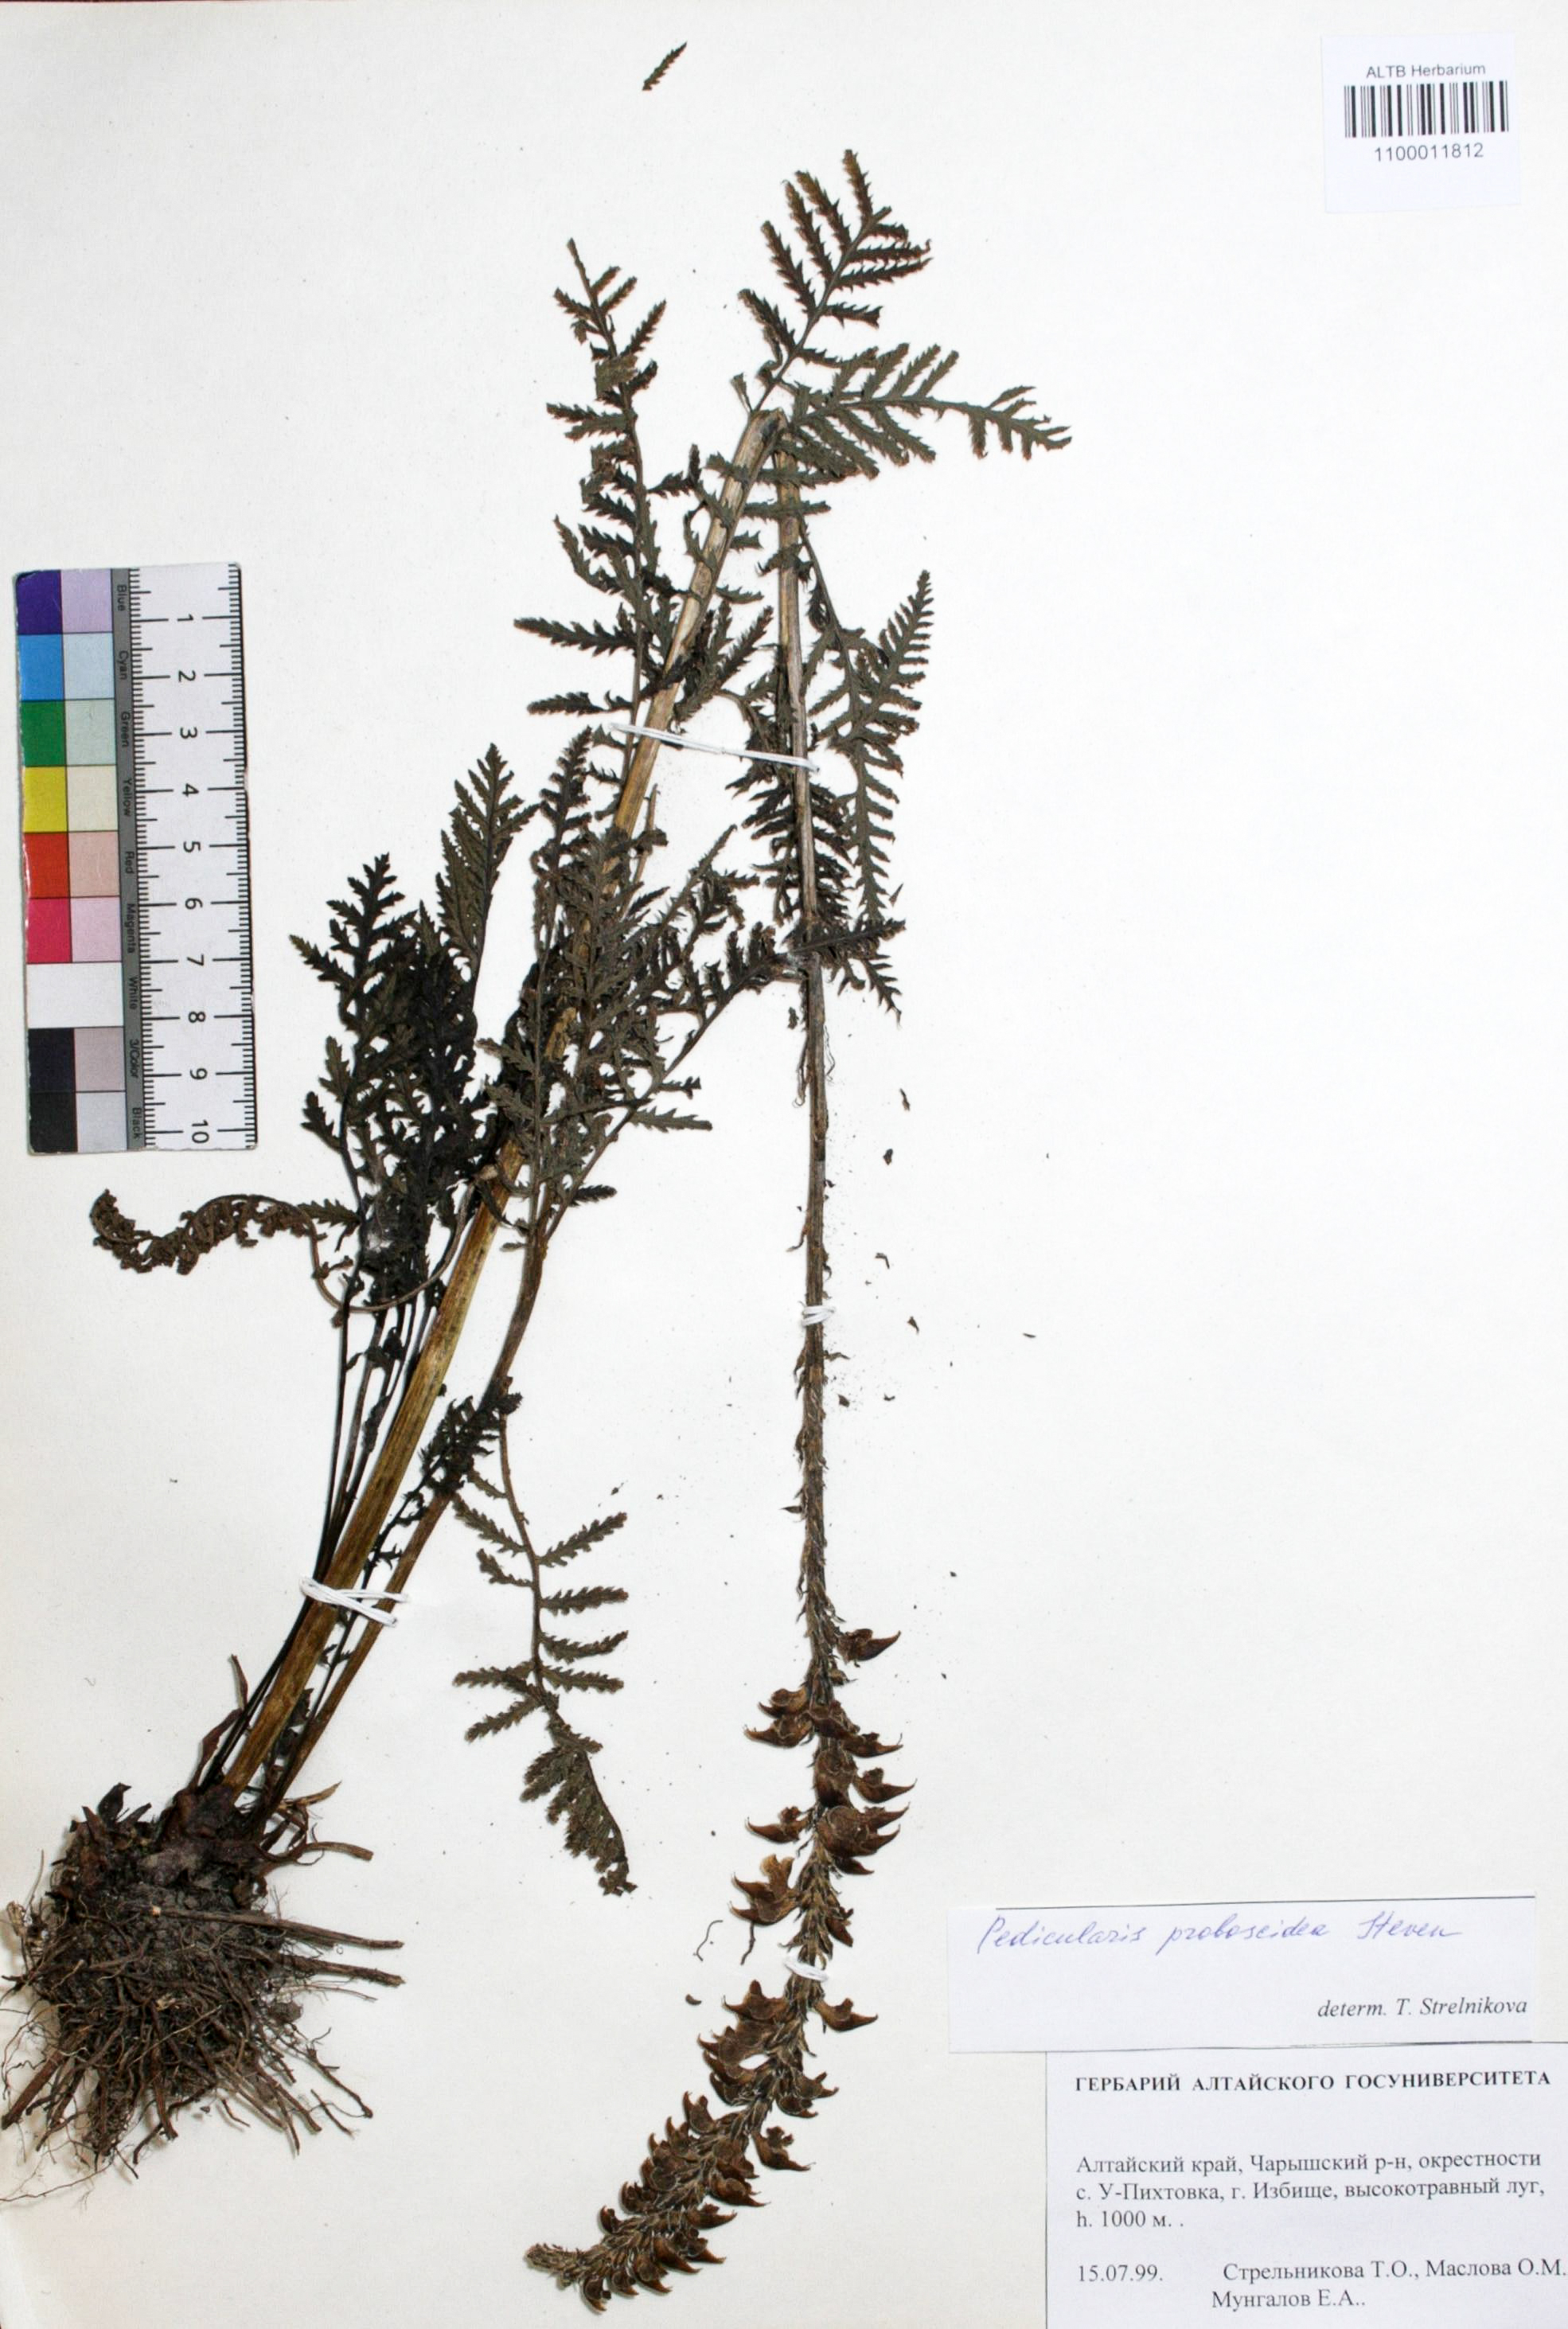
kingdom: Plantae
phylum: Tracheophyta
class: Magnoliopsida
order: Lamiales
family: Orobanchaceae
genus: Pedicularis
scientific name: Pedicularis proboscidea
